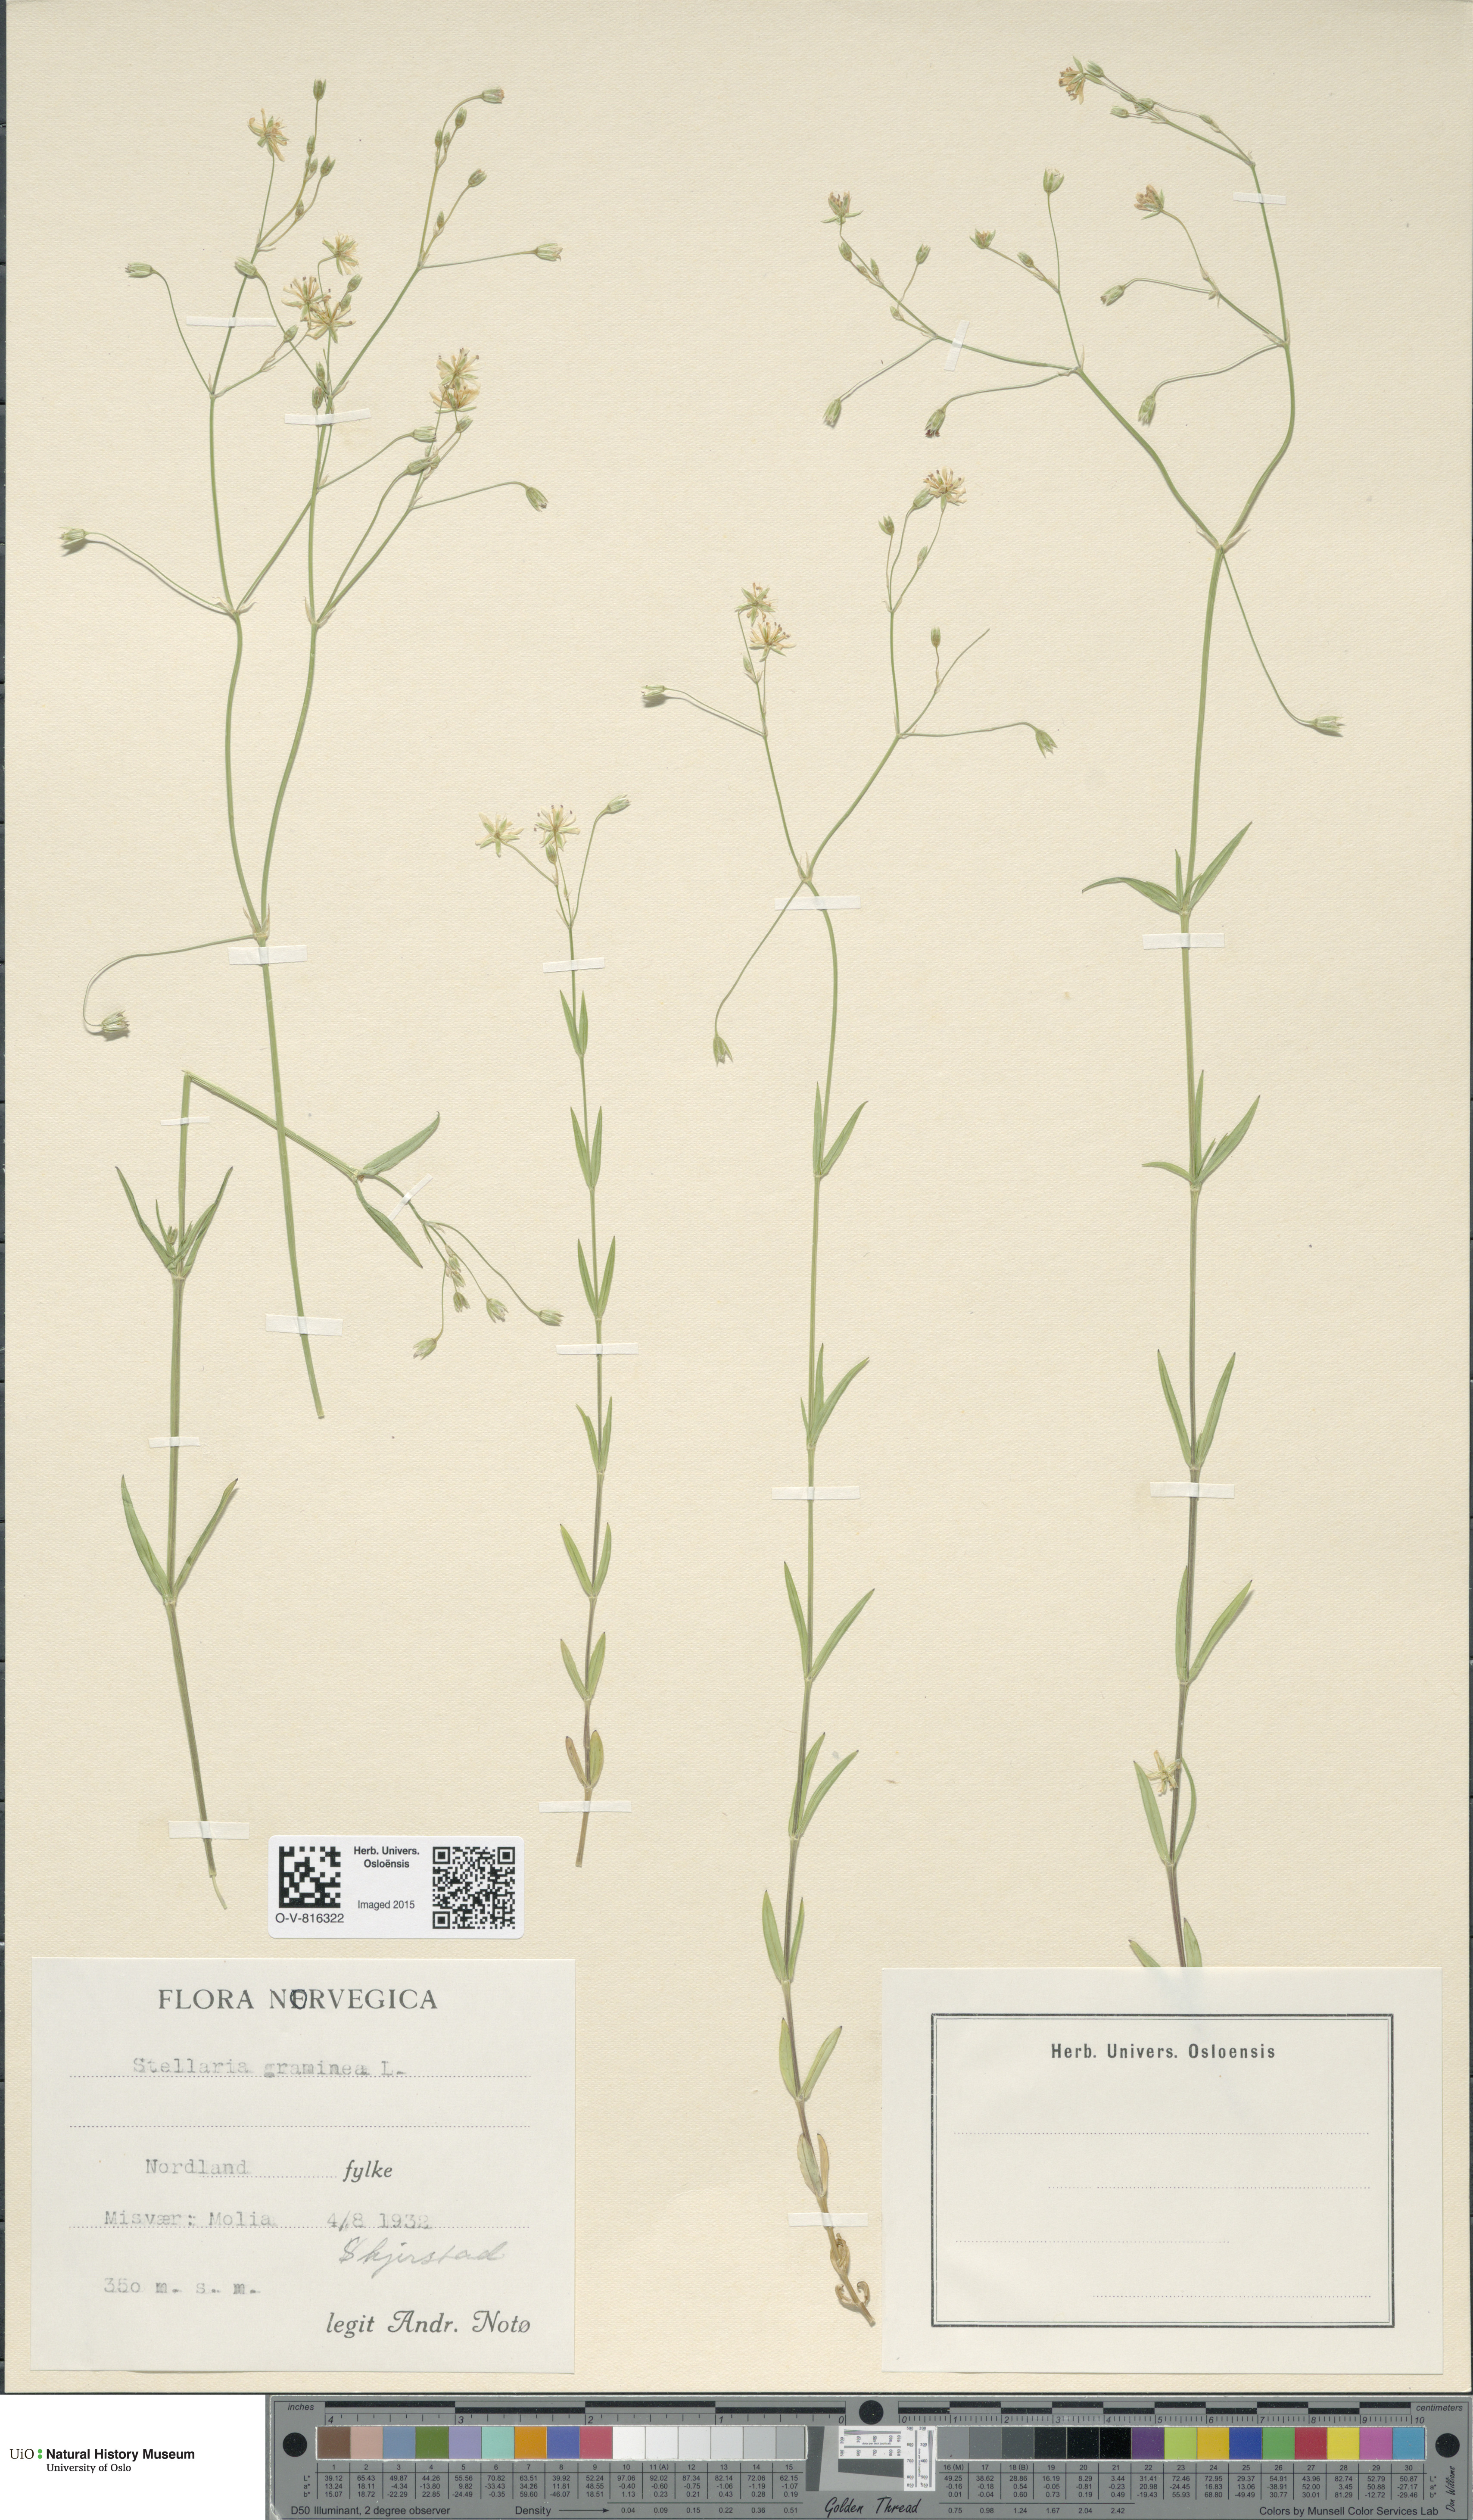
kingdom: Plantae
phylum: Tracheophyta
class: Magnoliopsida
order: Caryophyllales
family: Caryophyllaceae
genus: Stellaria
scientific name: Stellaria graminea
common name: Grass-like starwort
